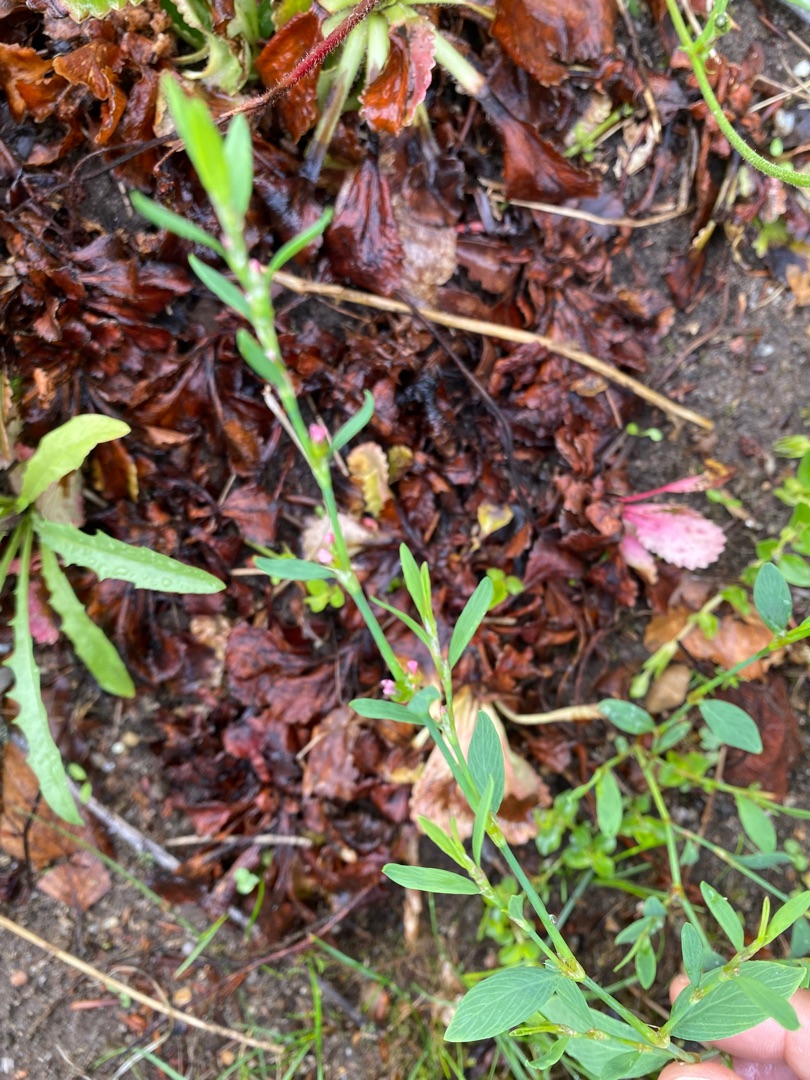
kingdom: Plantae
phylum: Tracheophyta
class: Magnoliopsida
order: Caryophyllales
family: Polygonaceae
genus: Polygonum
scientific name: Polygonum aviculare
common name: Vej-pileurt
